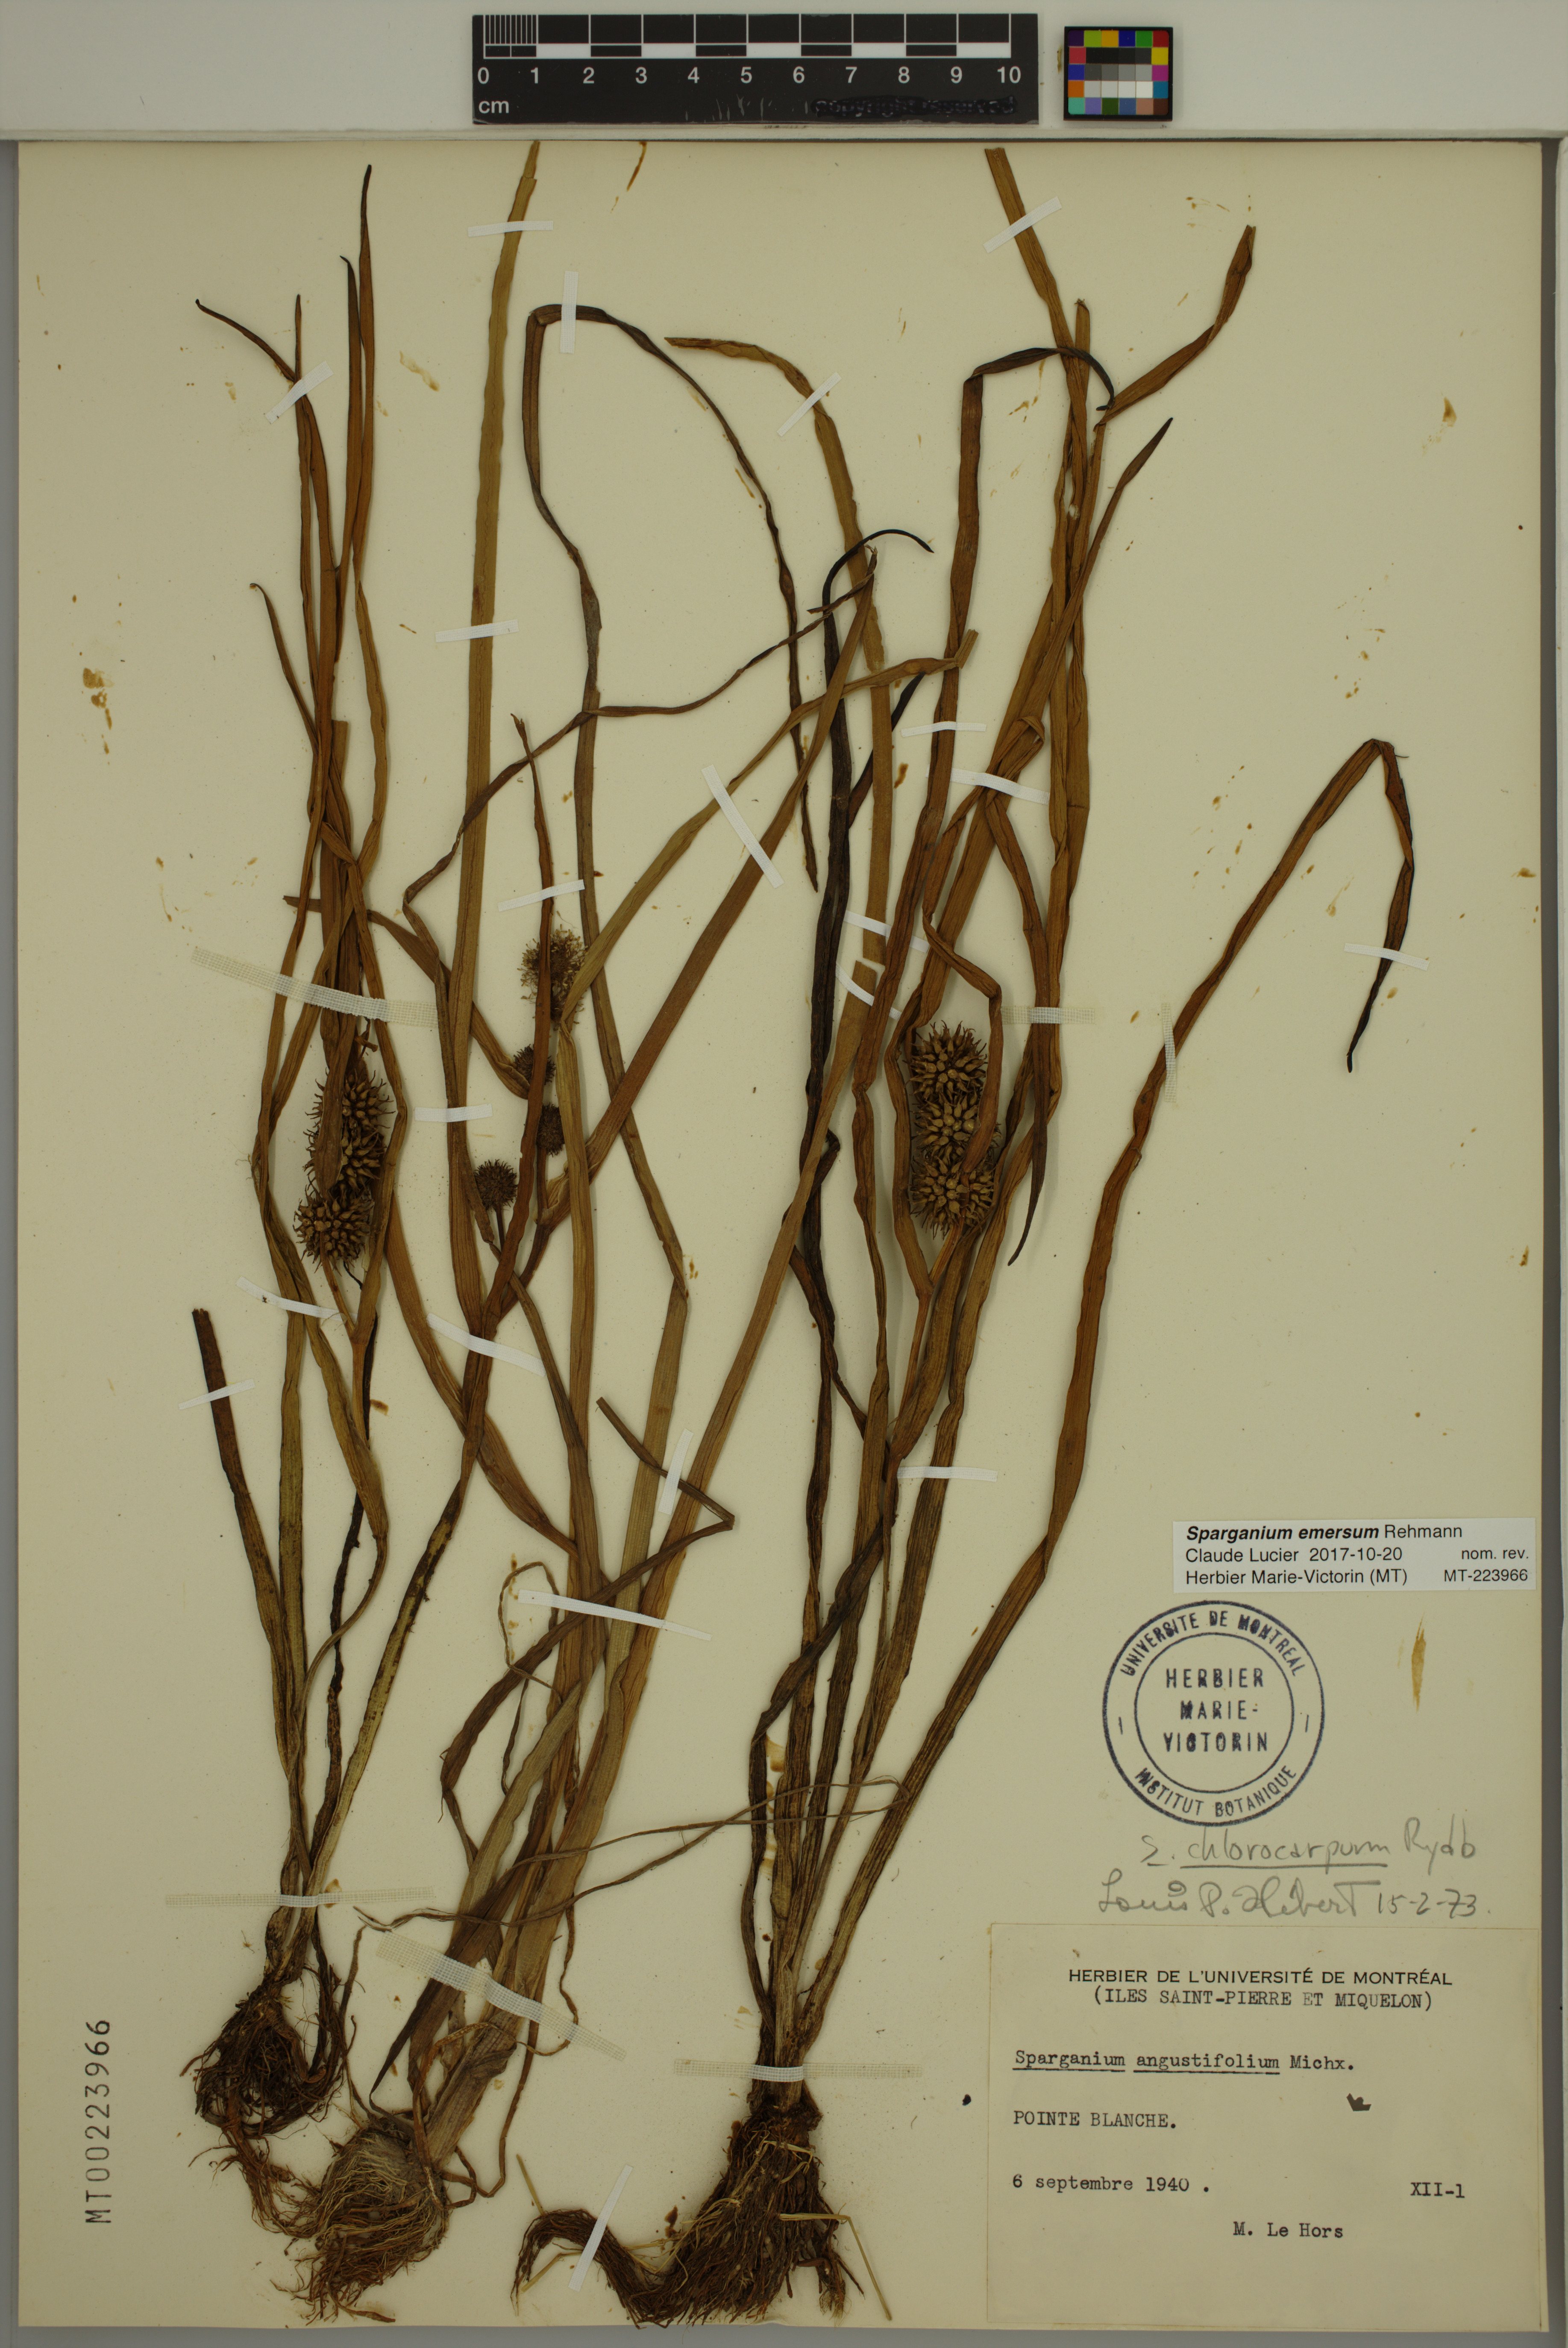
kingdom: Plantae
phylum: Tracheophyta
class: Liliopsida
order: Poales
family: Typhaceae
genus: Sparganium
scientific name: Sparganium emersum
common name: Unbranched bur-reed
